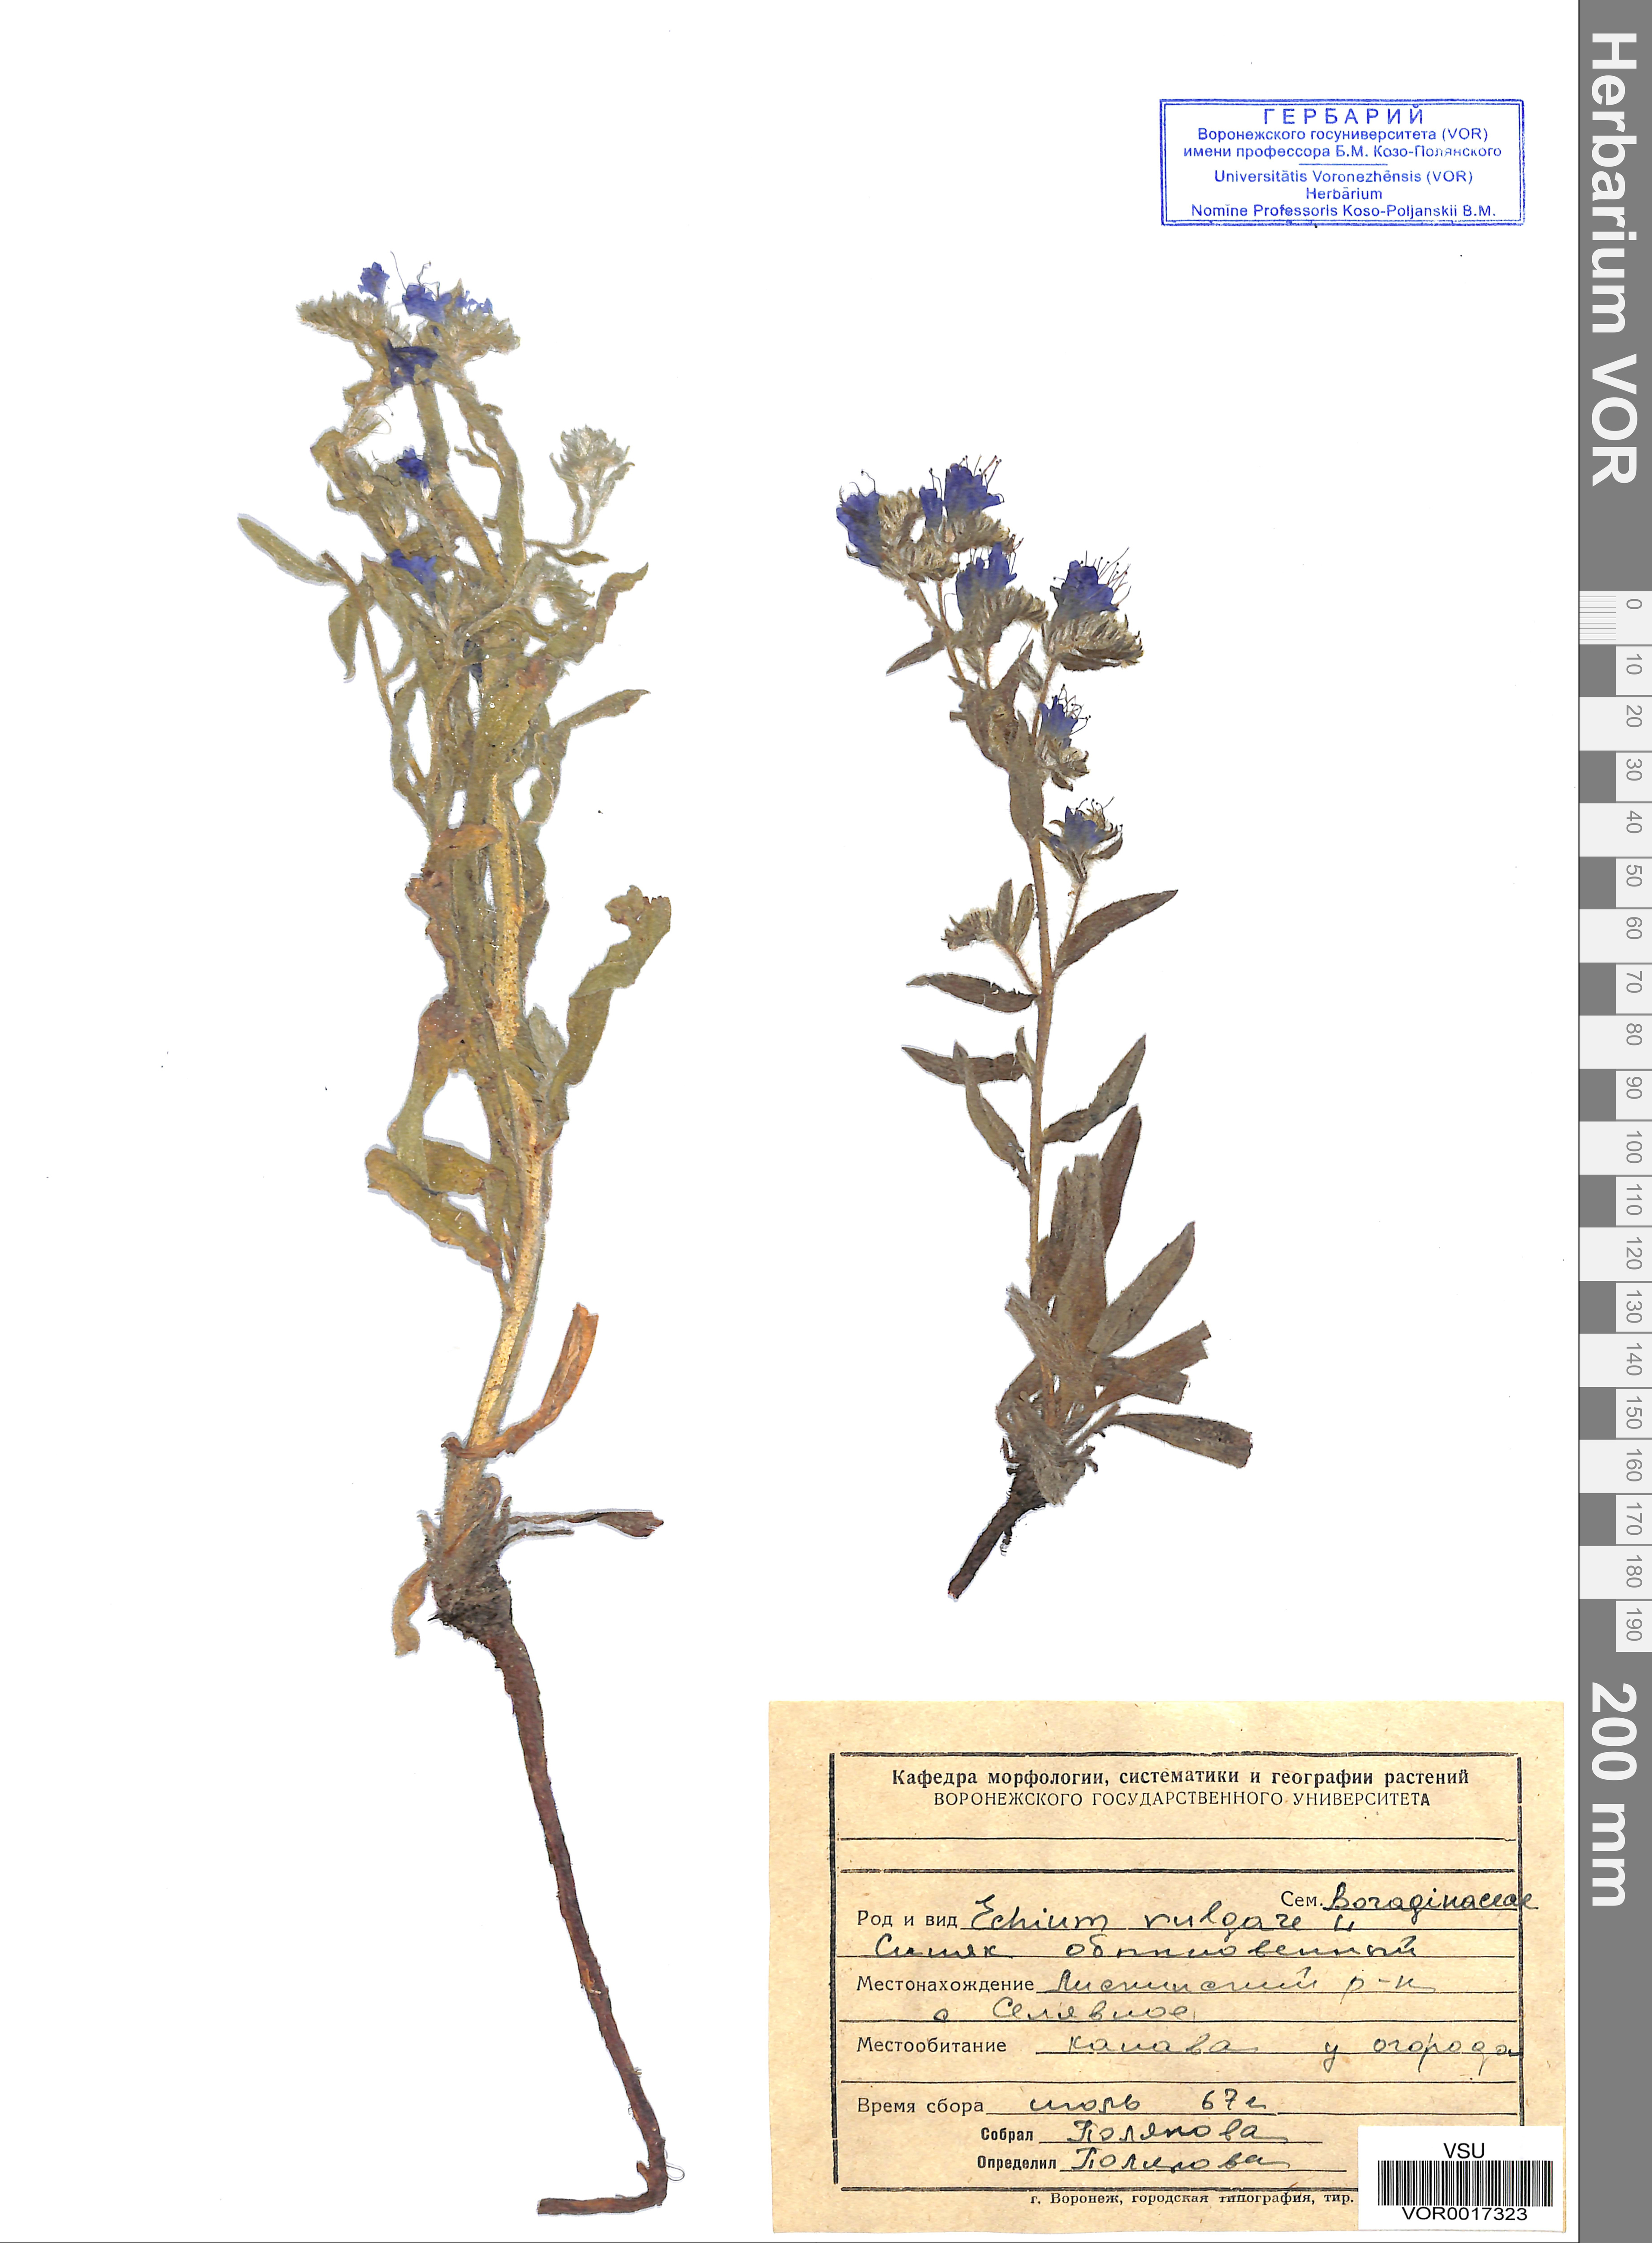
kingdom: Plantae
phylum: Tracheophyta
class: Magnoliopsida
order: Boraginales
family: Boraginaceae
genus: Echium
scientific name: Echium vulgare
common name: Common viper's bugloss
